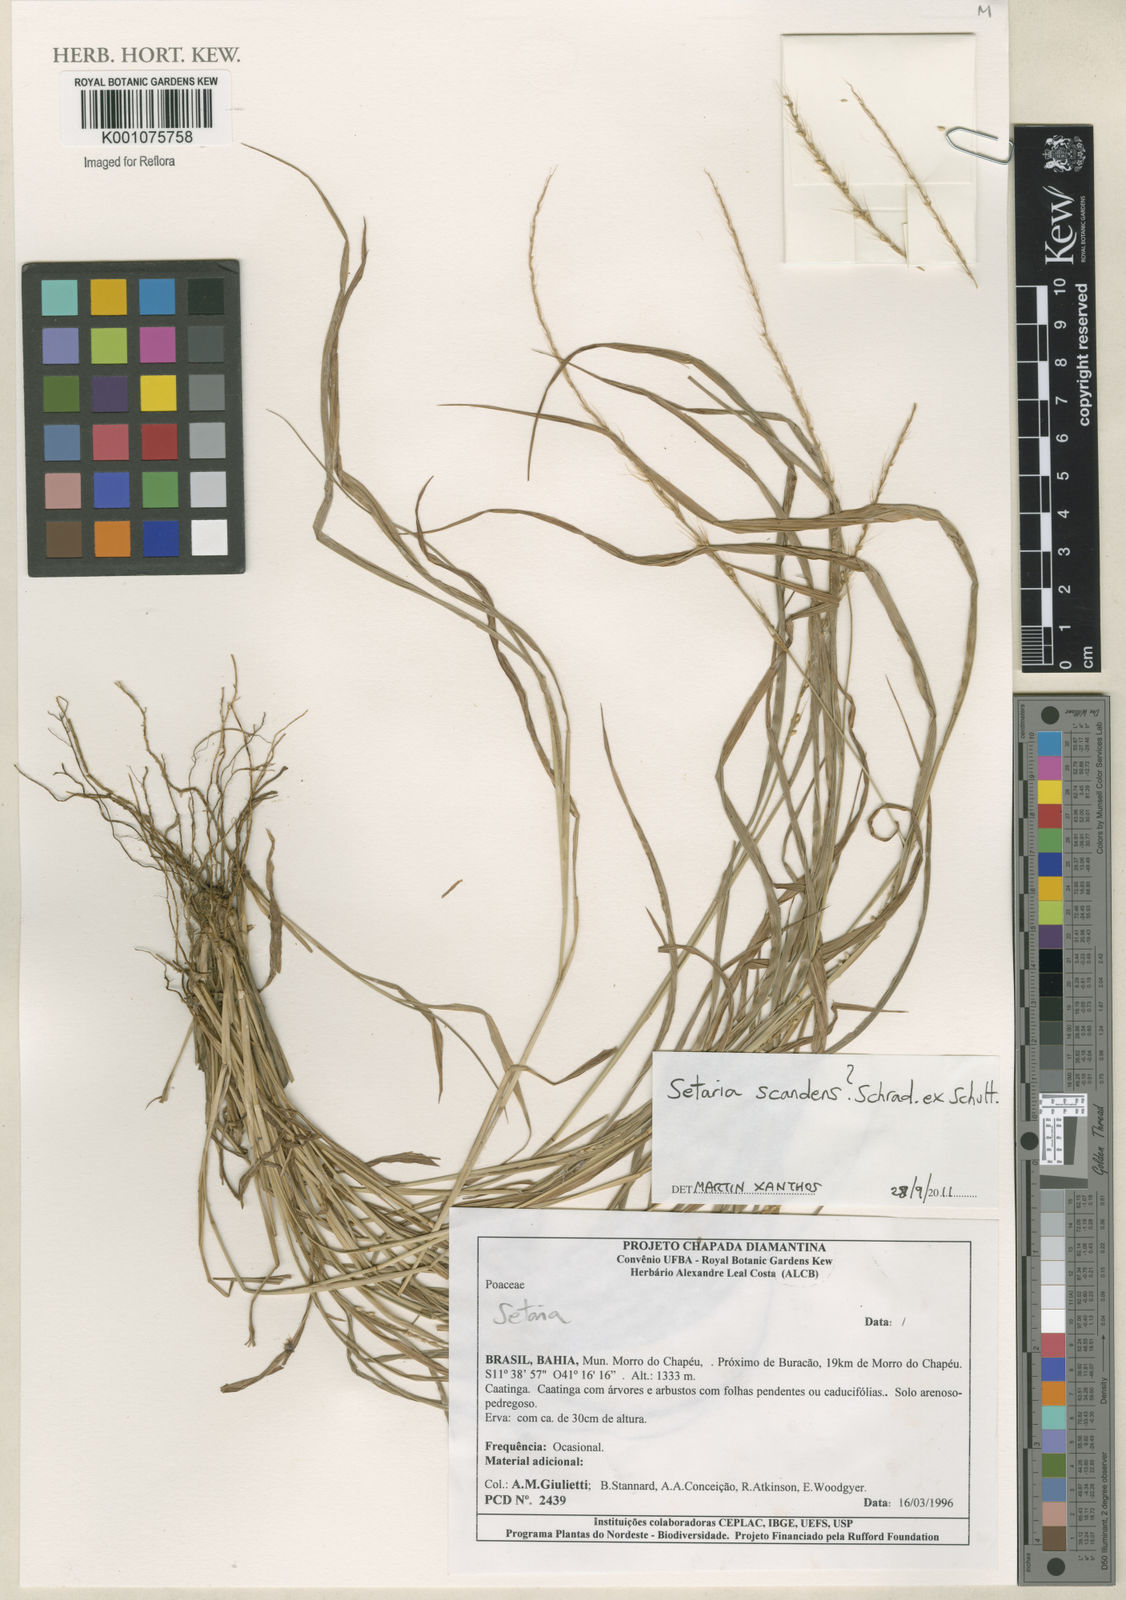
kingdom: Plantae
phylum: Tracheophyta
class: Liliopsida
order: Poales
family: Poaceae
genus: Setaria
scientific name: Setaria scandens
